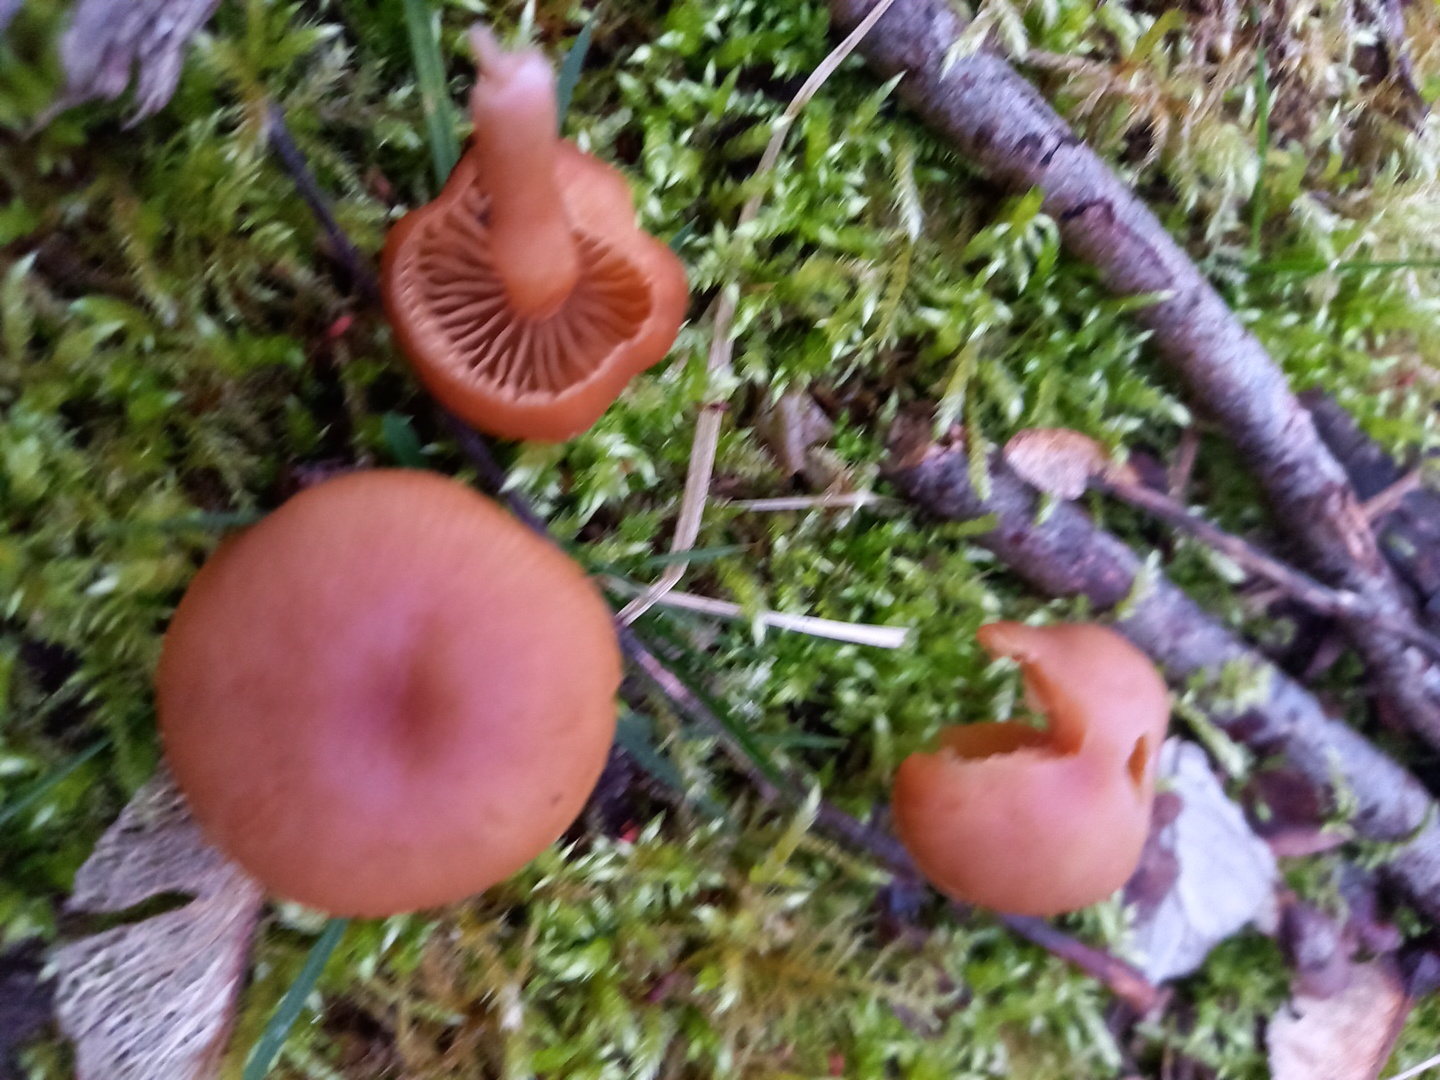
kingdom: Fungi
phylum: Basidiomycota
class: Agaricomycetes
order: Agaricales
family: Tubariaceae
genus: Tubaria
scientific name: Tubaria furfuracea
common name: kliddet fnughat
